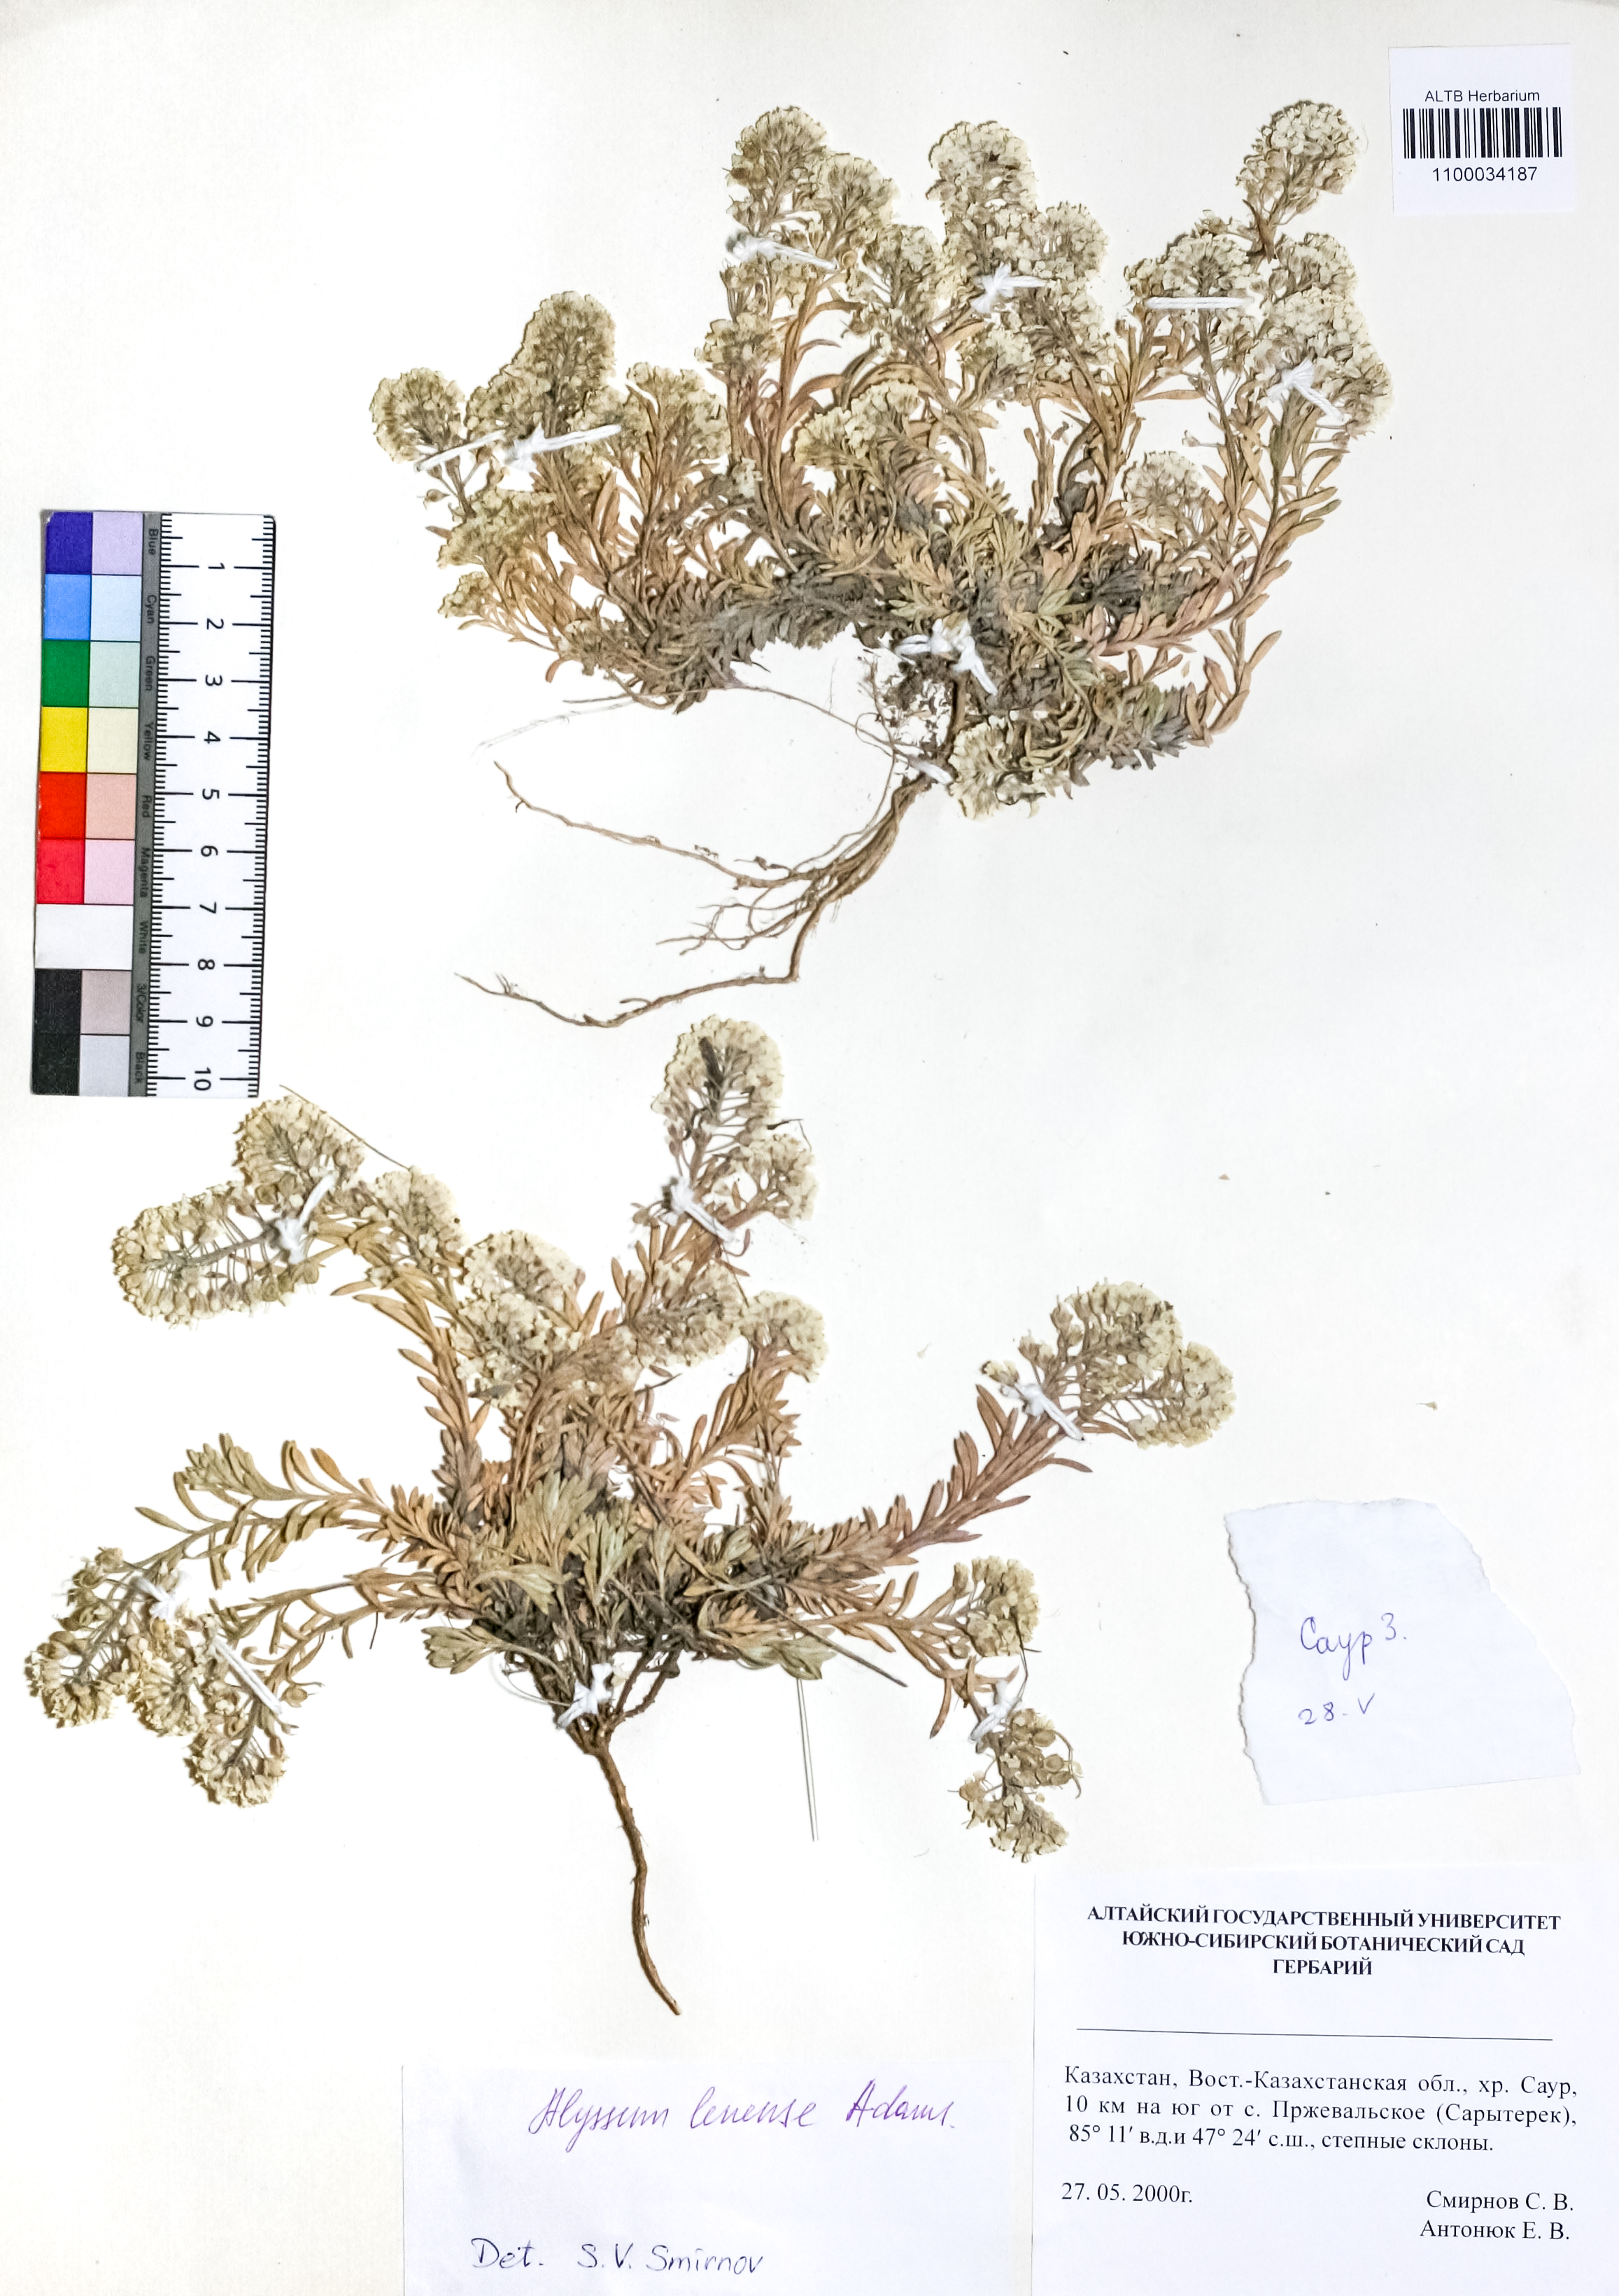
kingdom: Plantae
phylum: Tracheophyta
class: Magnoliopsida
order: Brassicales
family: Brassicaceae
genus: Alyssum
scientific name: Alyssum lenense
